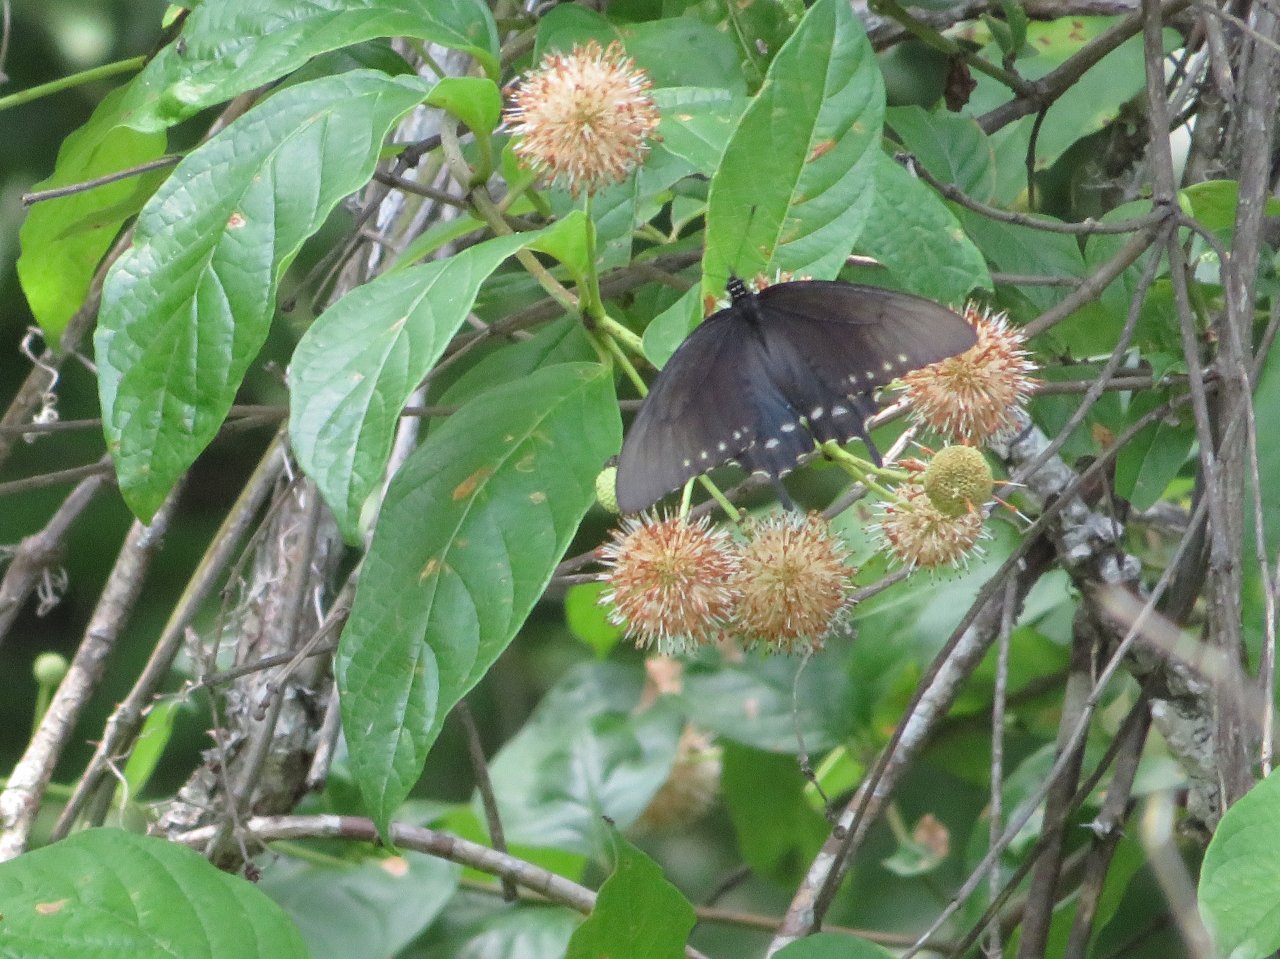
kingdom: Animalia
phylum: Arthropoda
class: Insecta
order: Lepidoptera
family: Papilionidae
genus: Battus
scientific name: Battus philenor
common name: Pipevine Swallowtail
